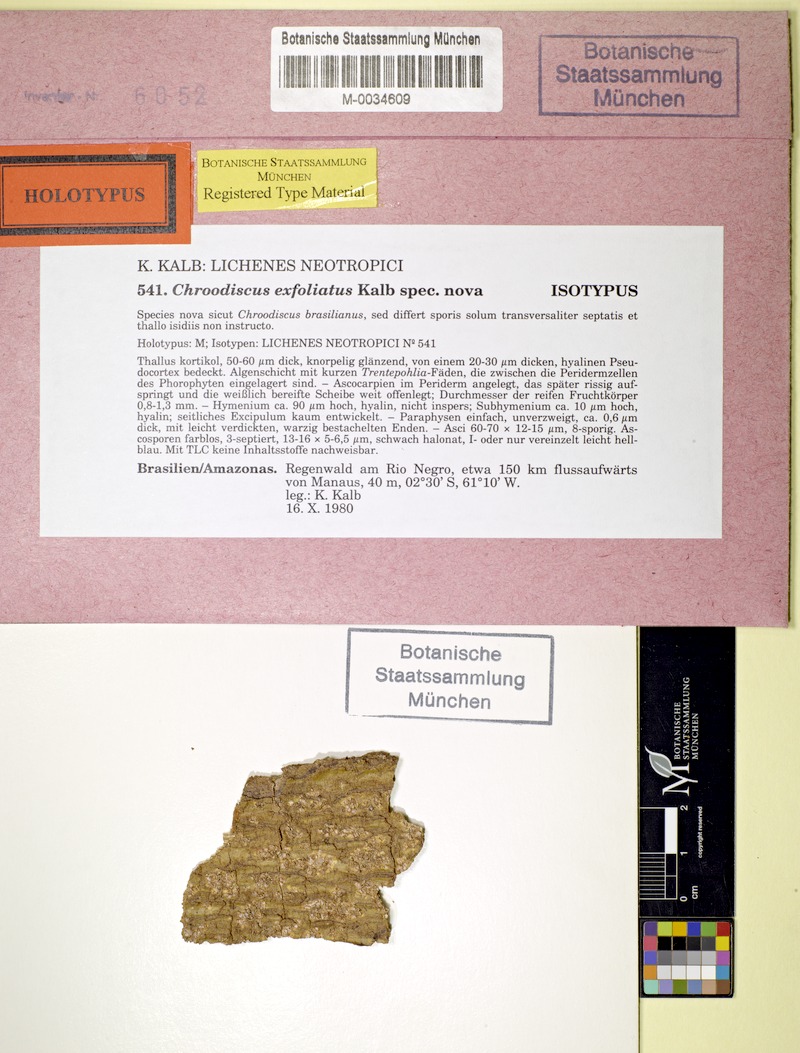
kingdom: Fungi
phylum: Ascomycota
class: Lecanoromycetes
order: Ostropales
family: Graphidaceae
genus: Chroodiscus
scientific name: Chroodiscus exfoliatus
